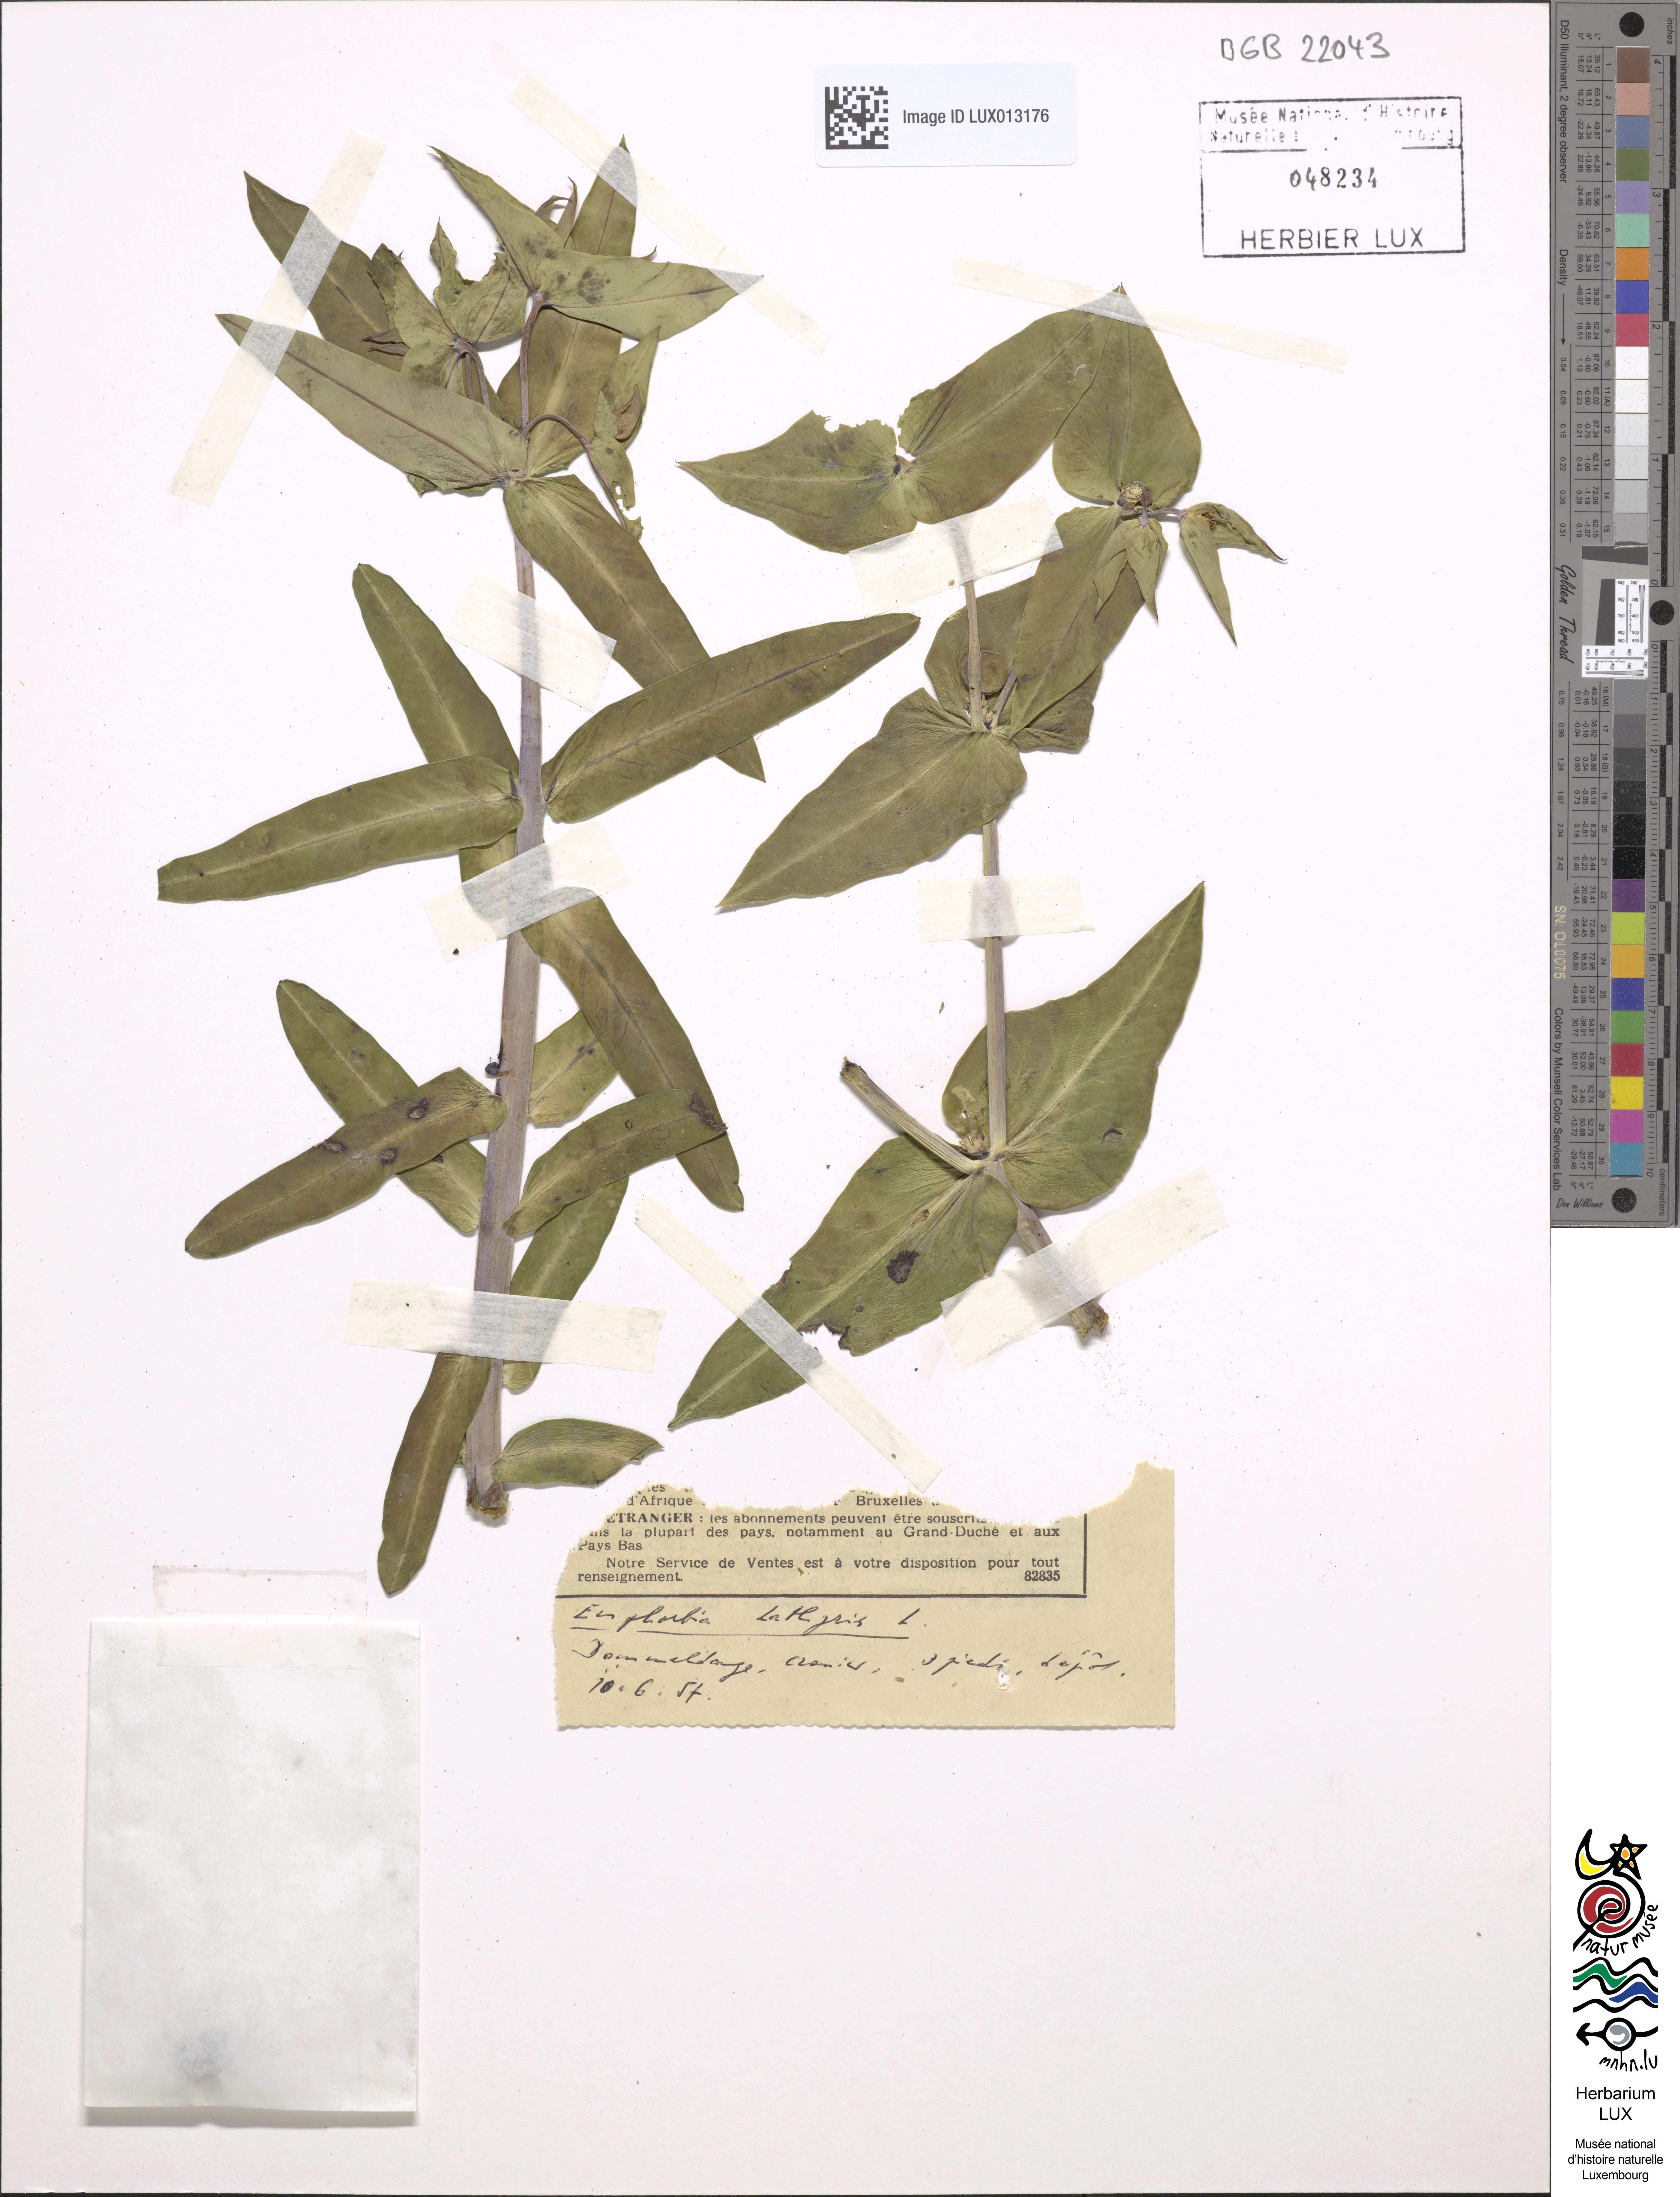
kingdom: Plantae
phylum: Tracheophyta
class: Magnoliopsida
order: Malpighiales
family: Euphorbiaceae
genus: Euphorbia
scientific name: Euphorbia lathyris
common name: Caper spurge
